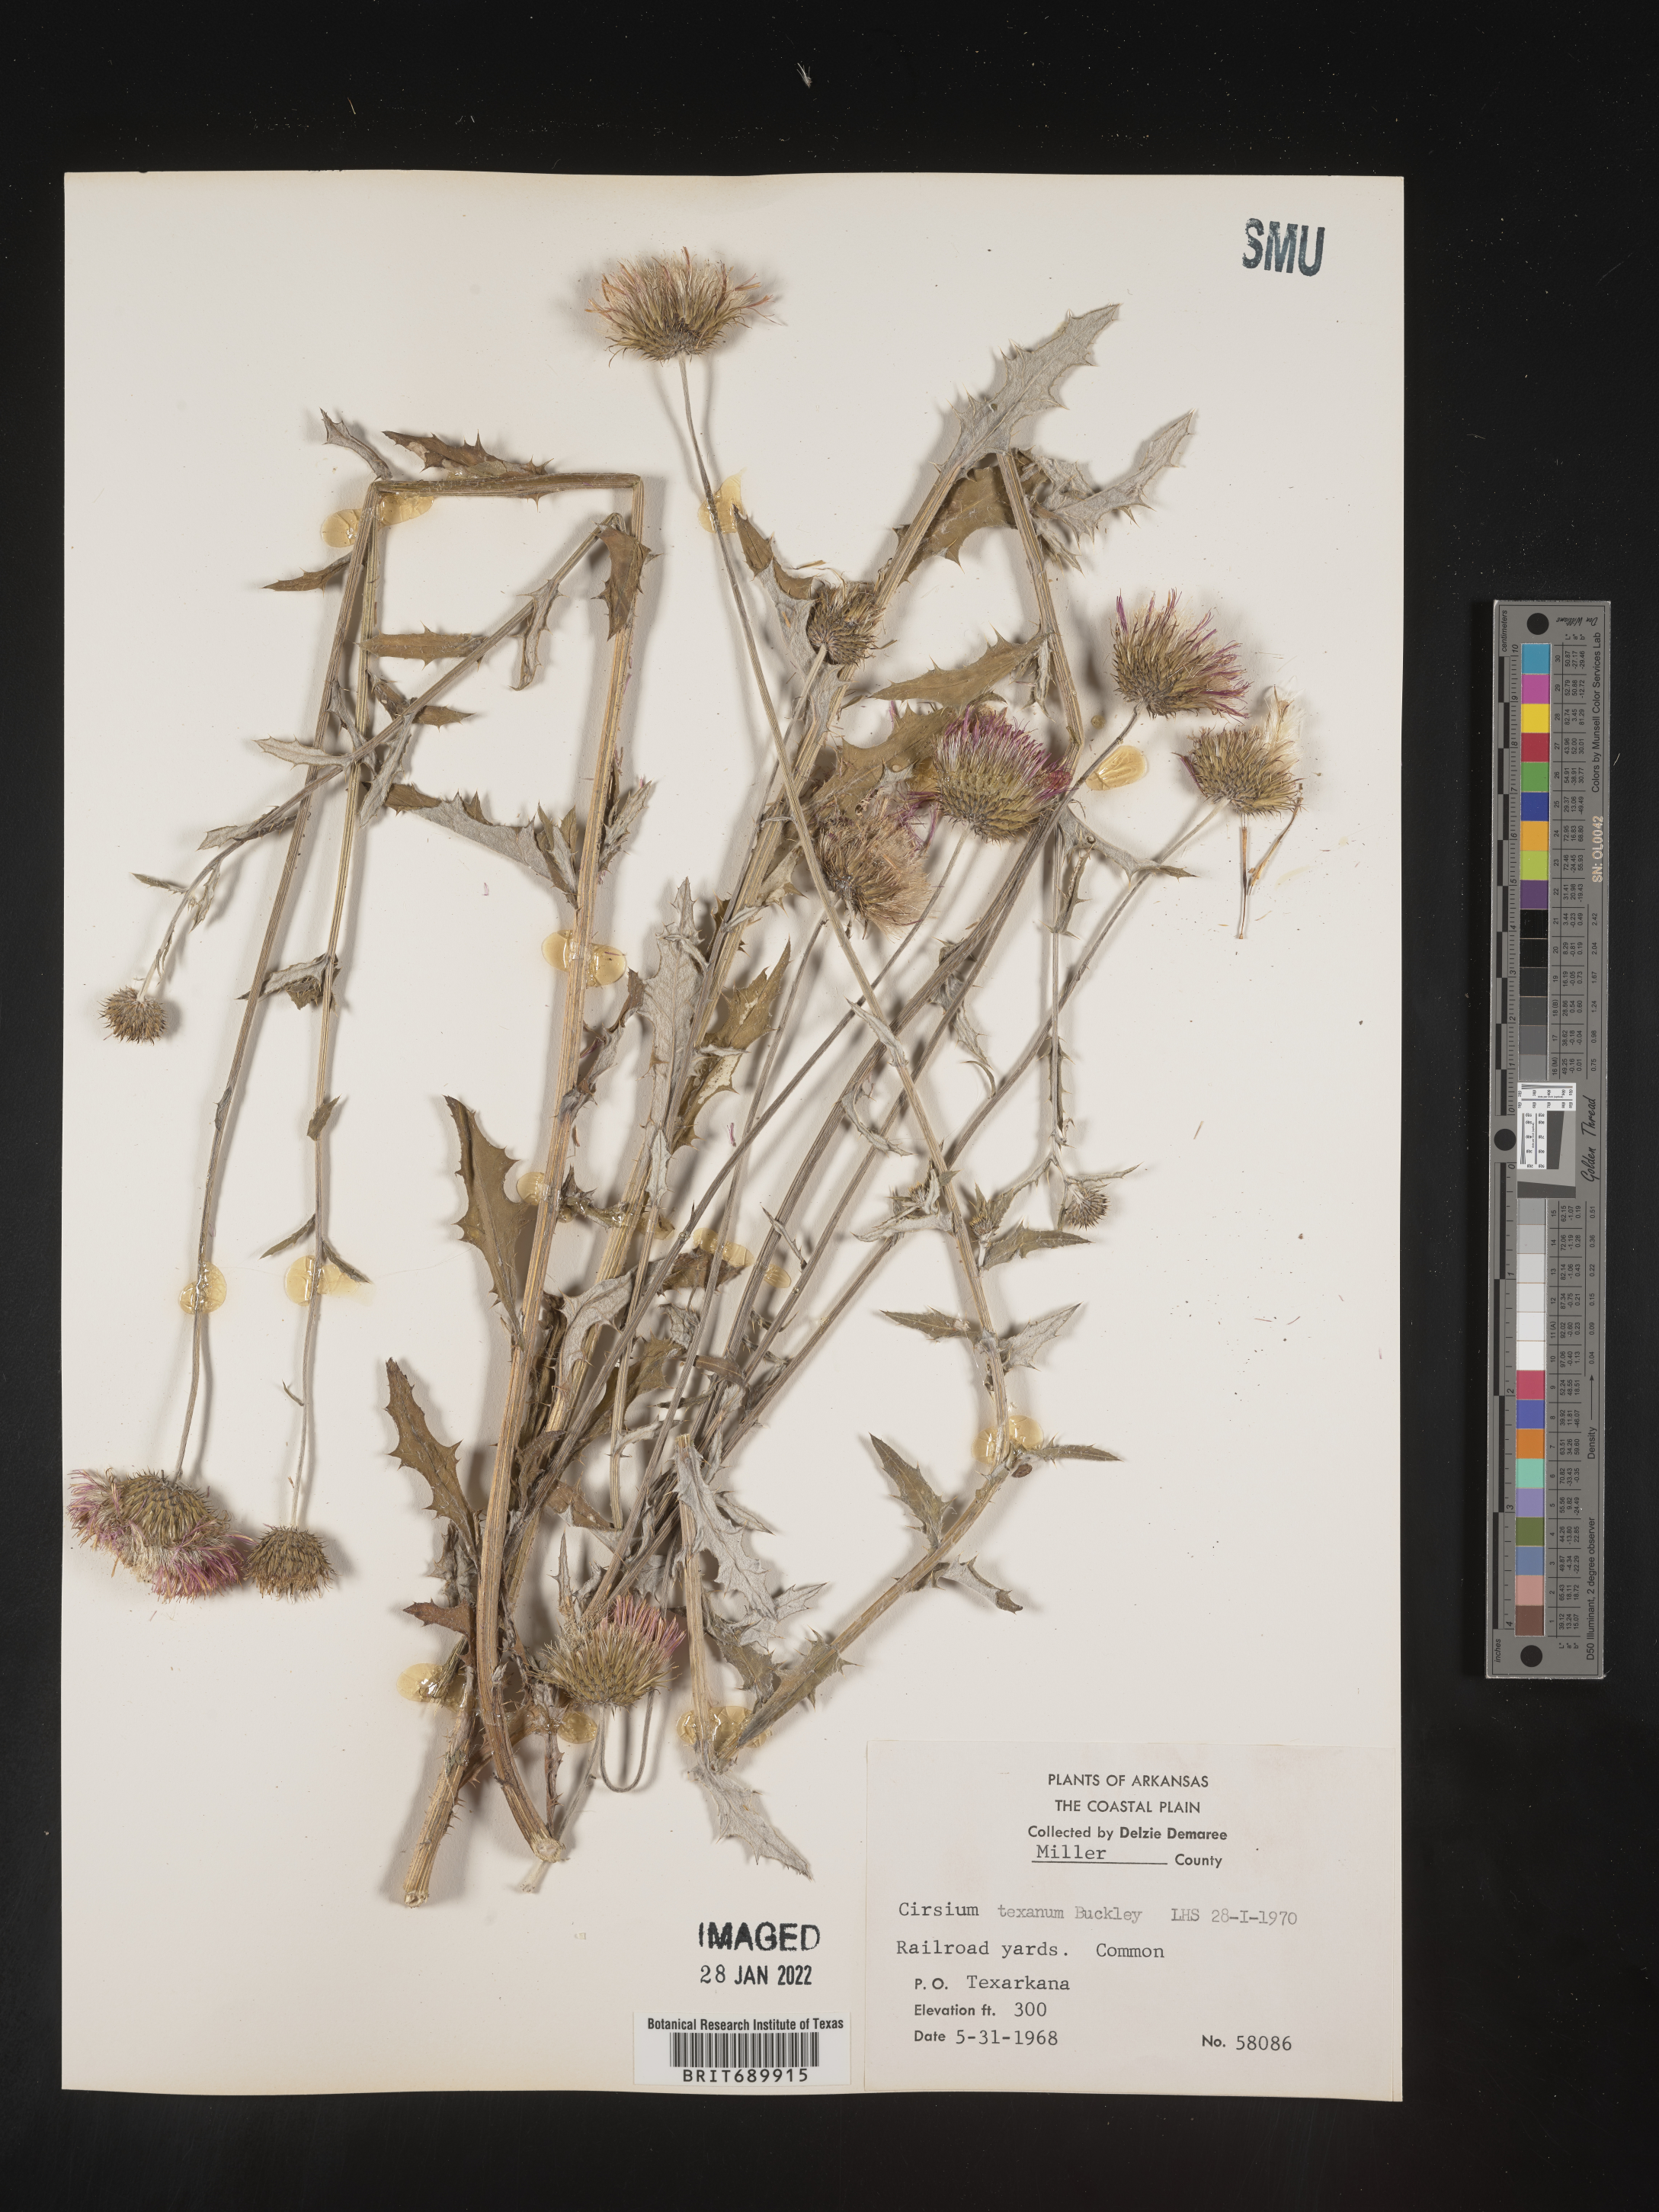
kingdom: Plantae
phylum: Tracheophyta
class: Magnoliopsida
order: Asterales
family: Asteraceae
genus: Cirsium
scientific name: Cirsium
